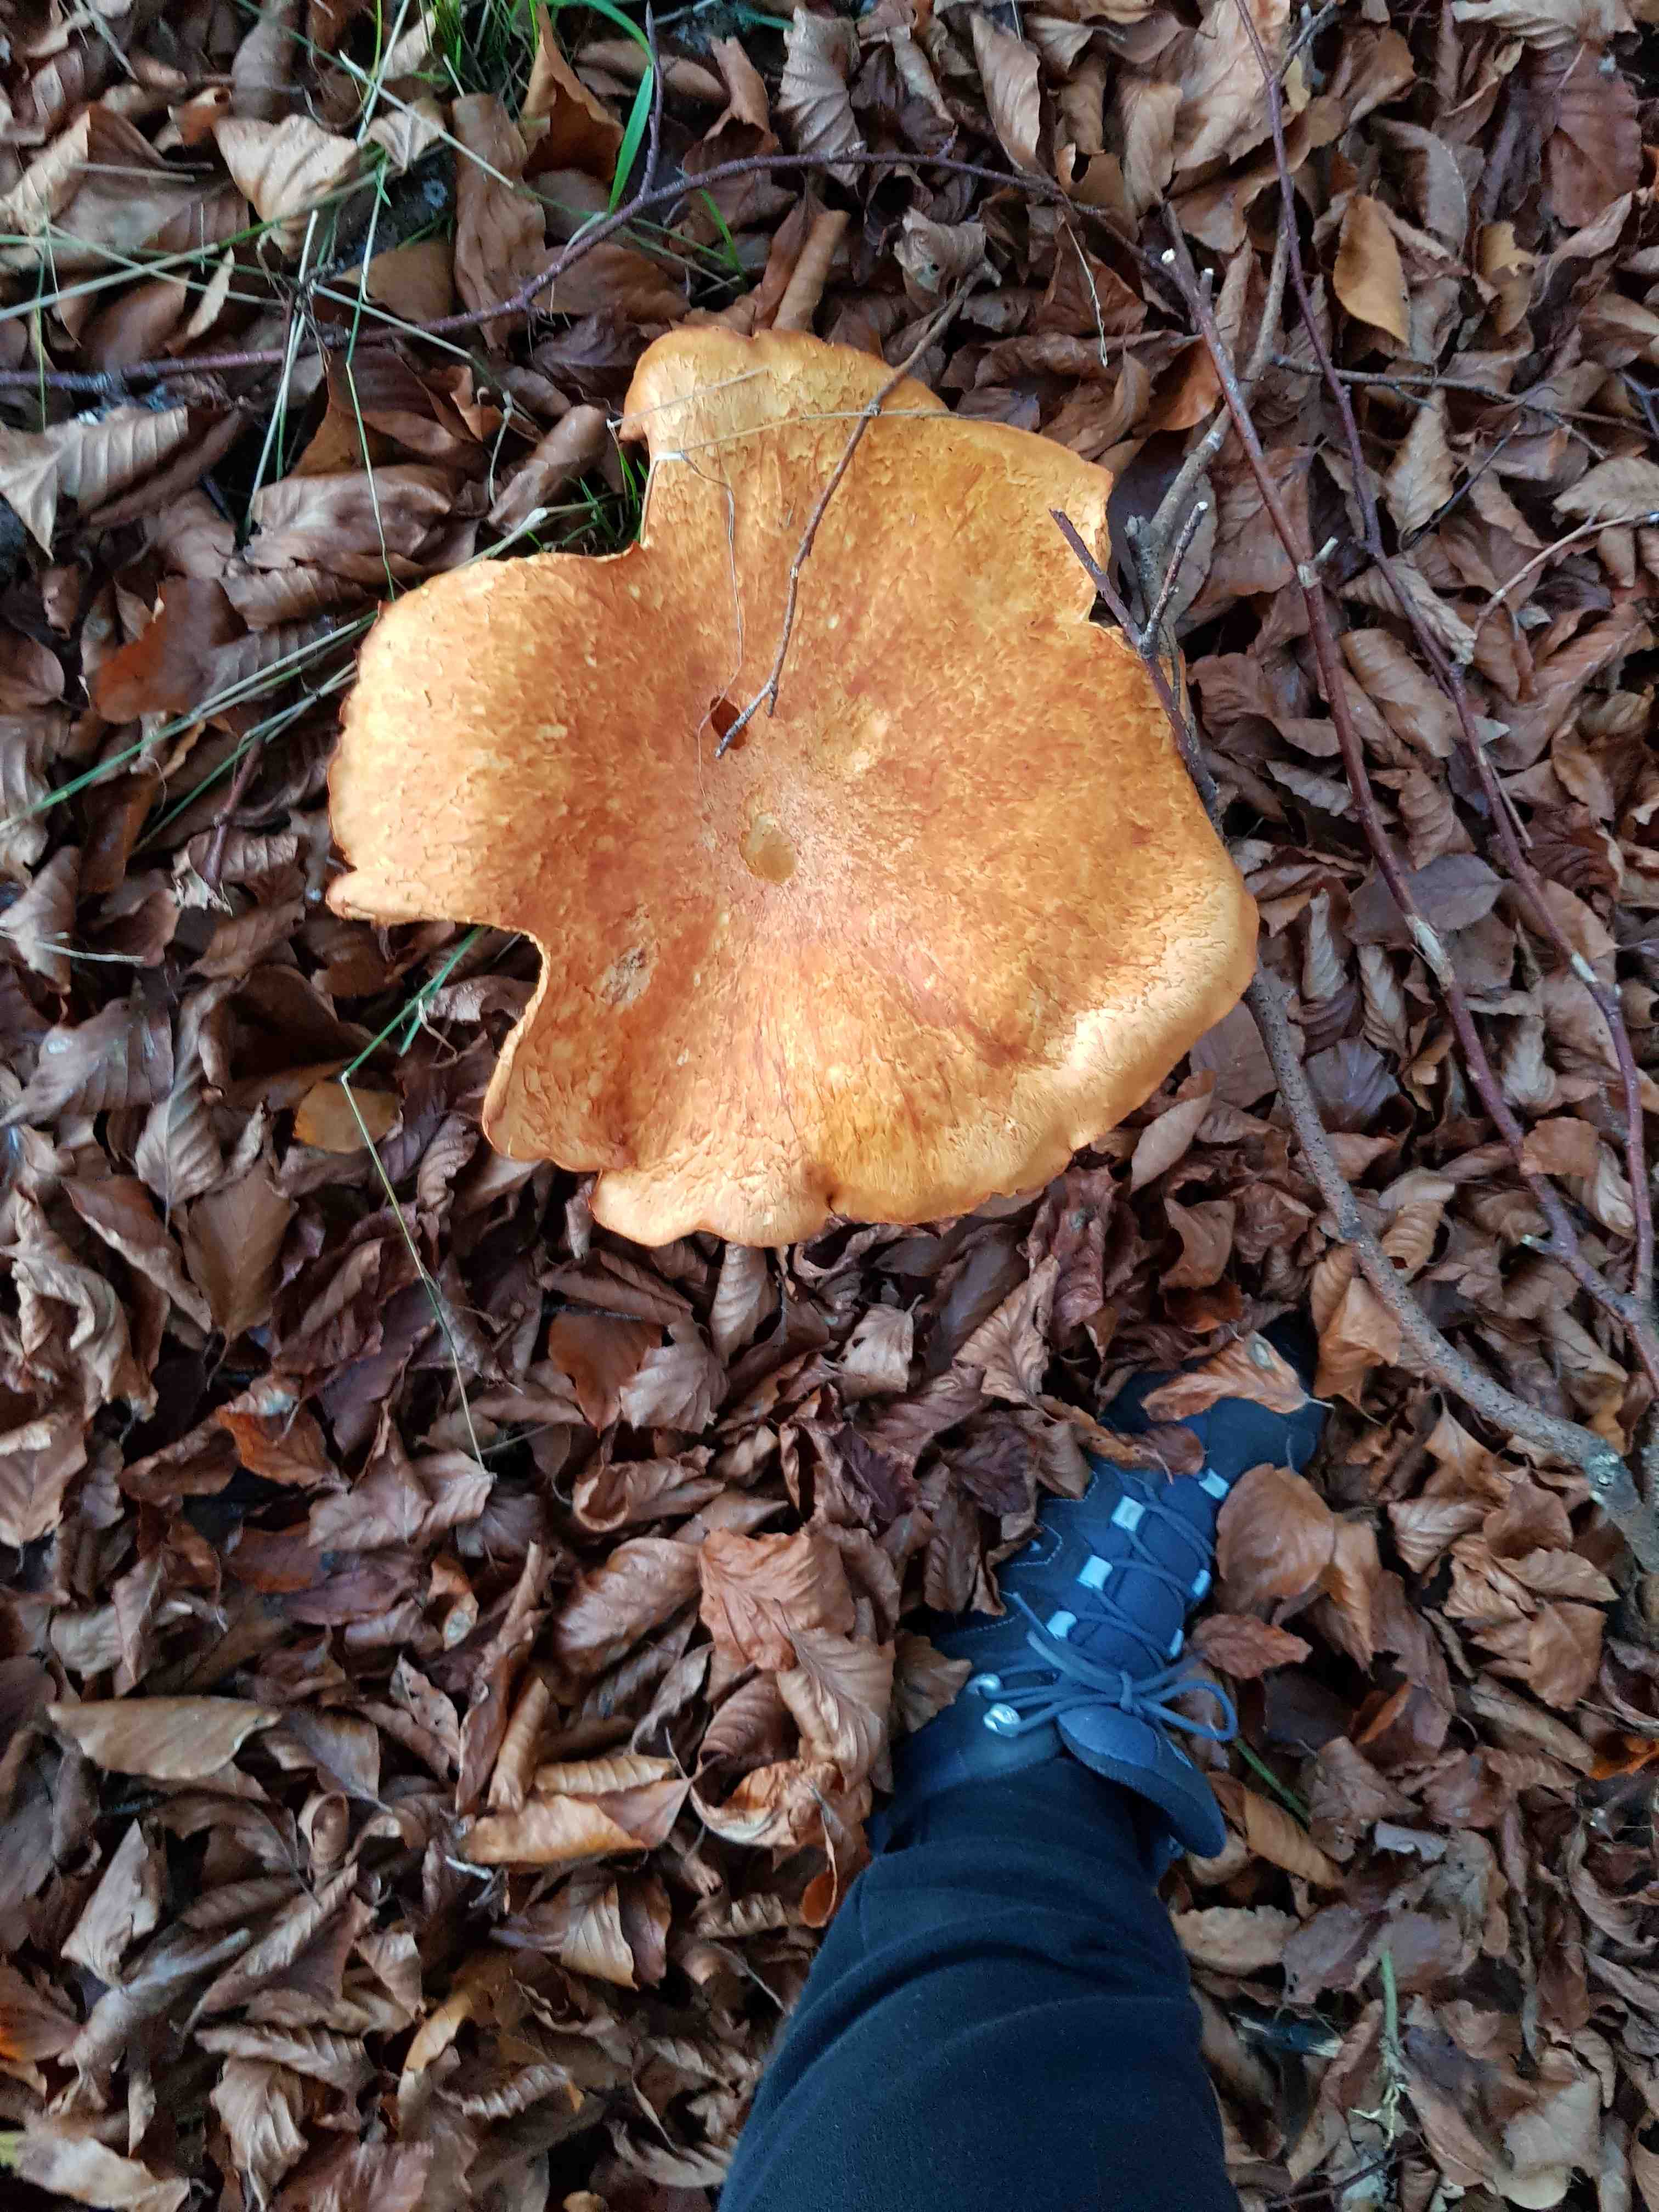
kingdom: Fungi
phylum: Basidiomycota
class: Agaricomycetes
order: Agaricales
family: Hymenogastraceae
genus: Gymnopilus
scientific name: Gymnopilus spectabilis
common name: fibret flammehat
